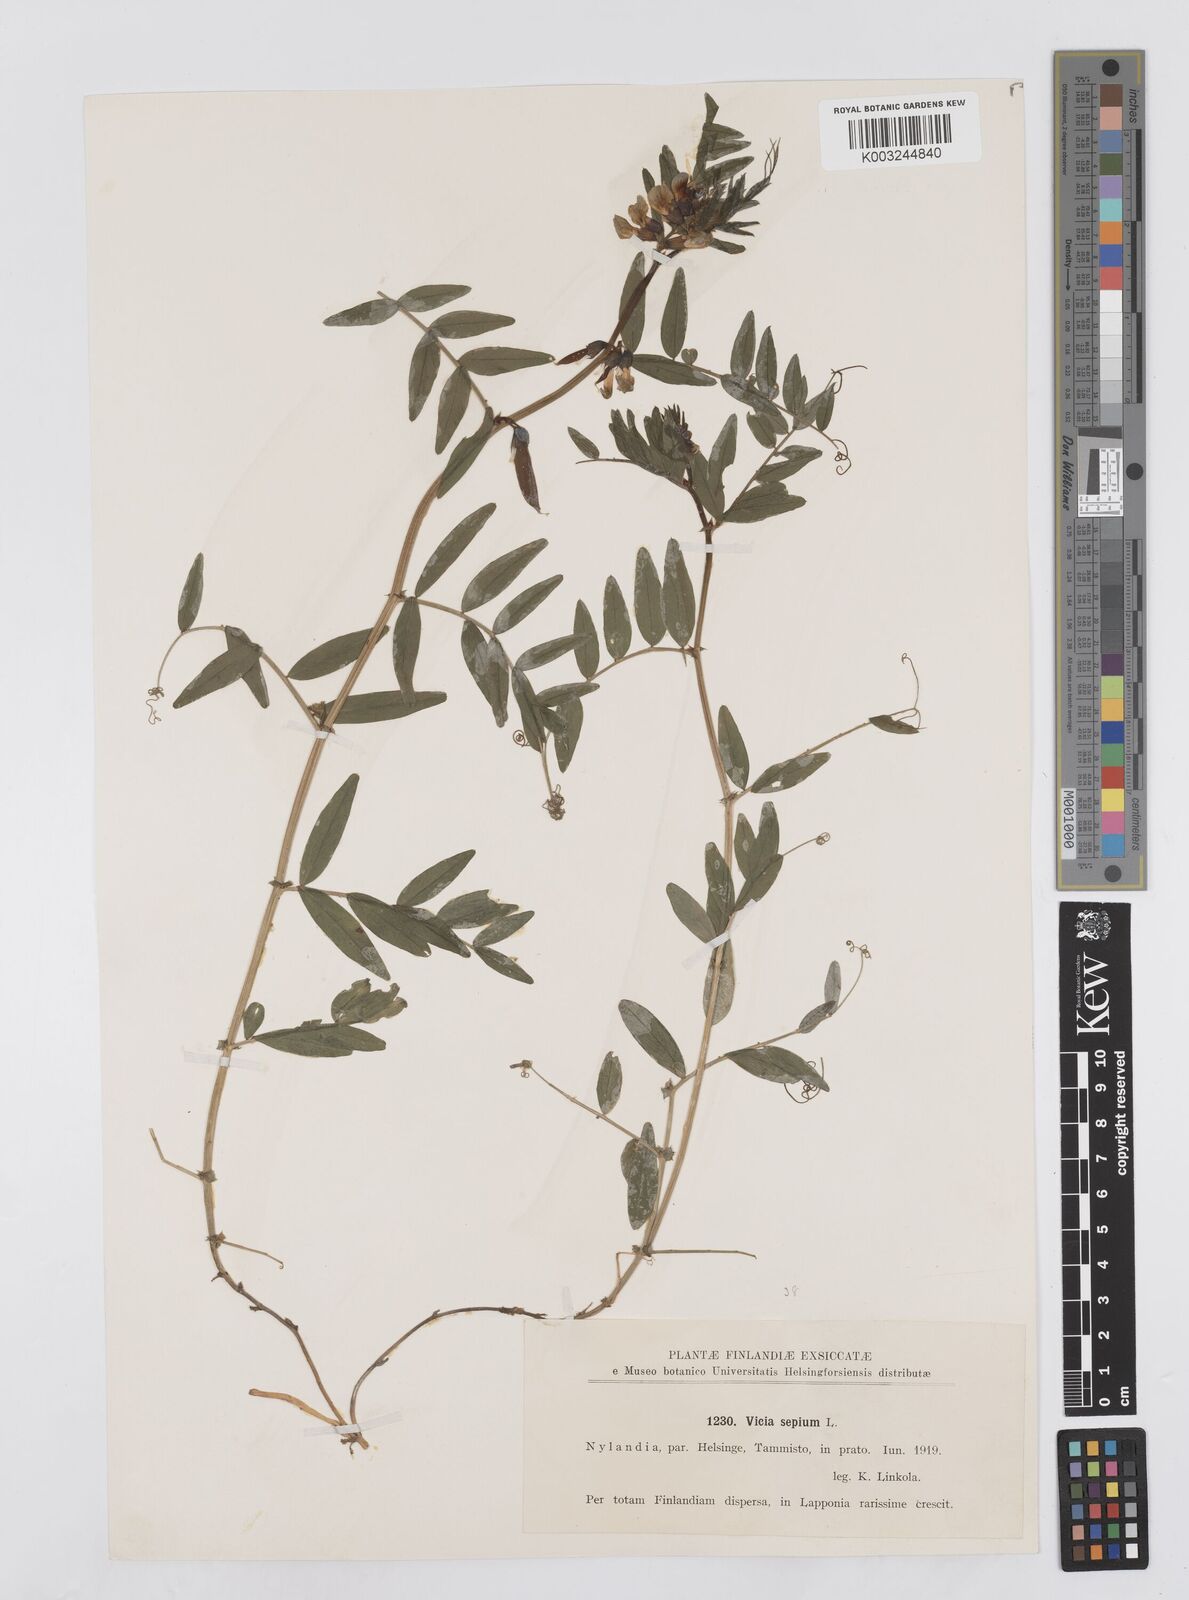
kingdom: Plantae
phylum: Tracheophyta
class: Magnoliopsida
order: Fabales
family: Fabaceae
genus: Vicia
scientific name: Vicia sepium
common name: Bush vetch
